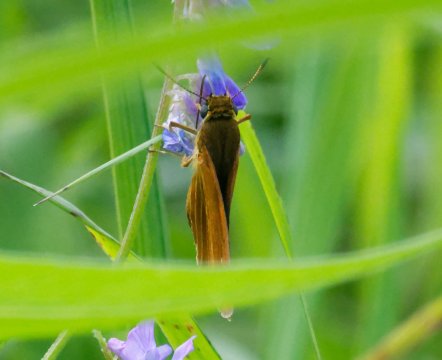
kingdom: Animalia
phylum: Arthropoda
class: Insecta
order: Lepidoptera
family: Hesperiidae
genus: Euphyes
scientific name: Euphyes dion
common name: Dion Skipper
